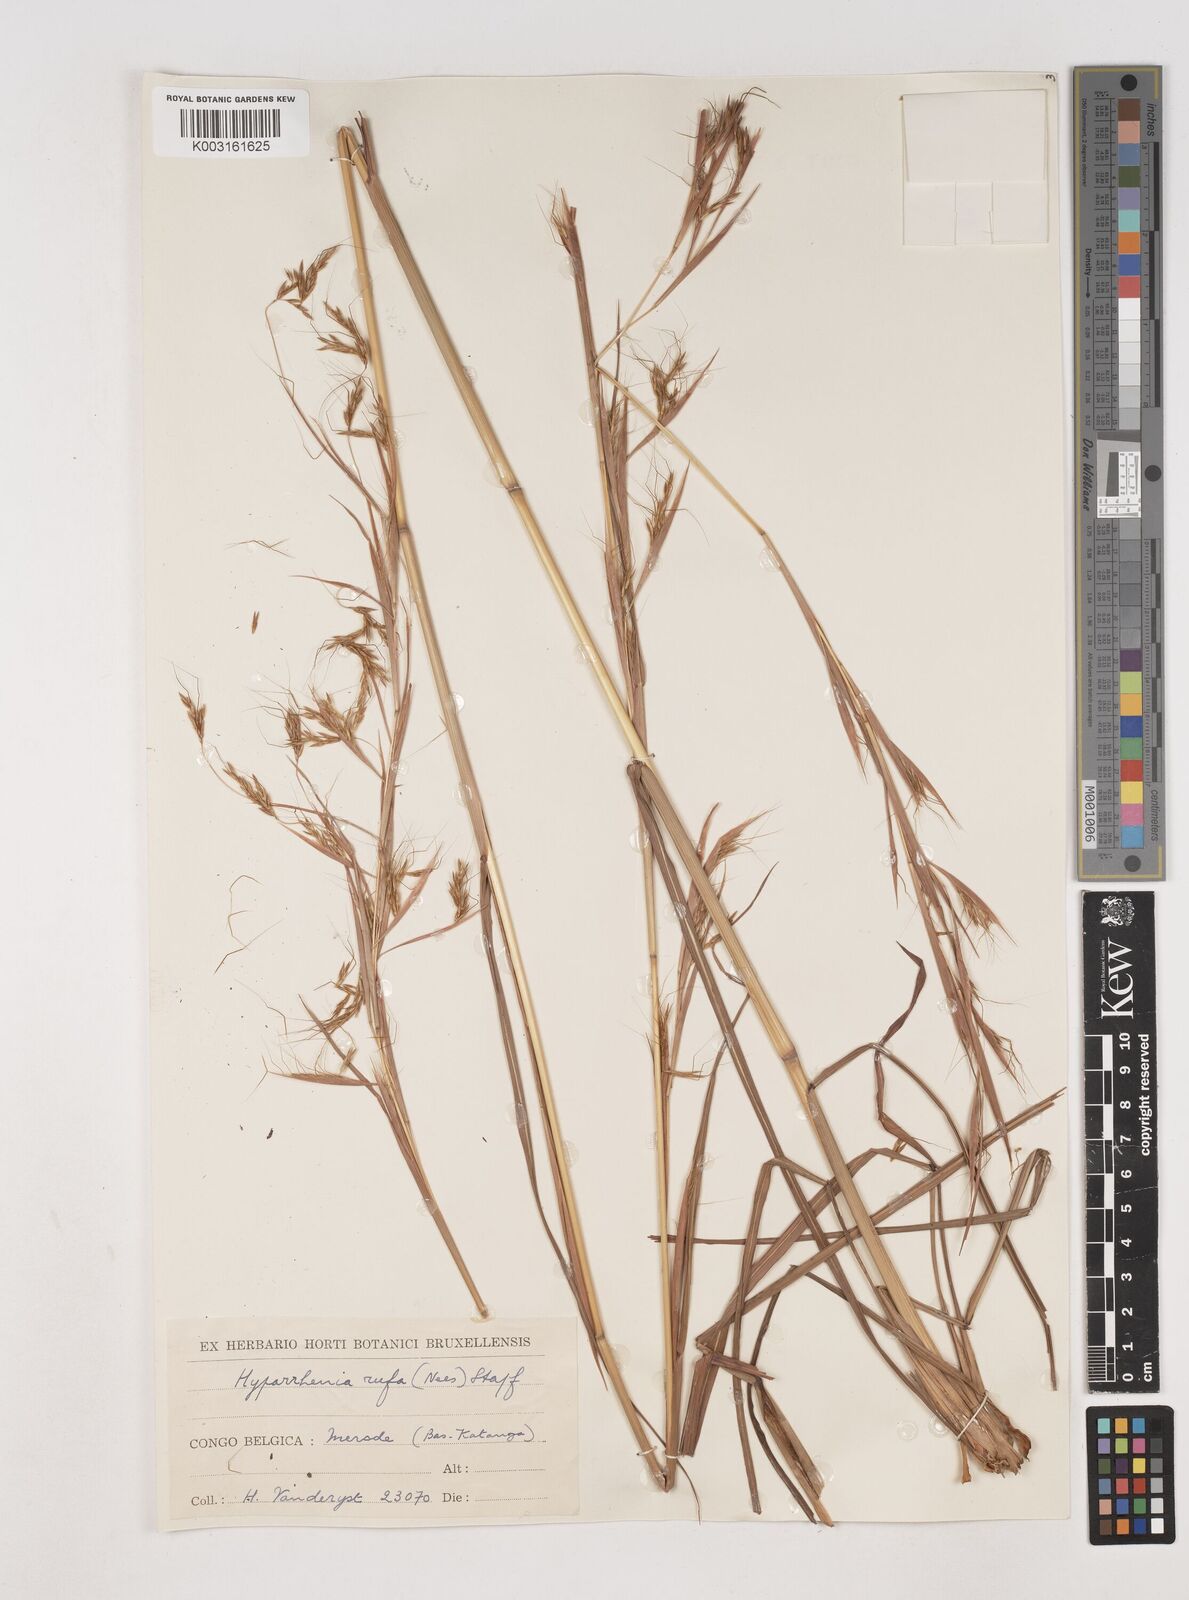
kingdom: Plantae
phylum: Tracheophyta
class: Liliopsida
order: Poales
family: Poaceae
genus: Hyparrhenia
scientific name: Hyparrhenia rufa
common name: Jaraguagrass
